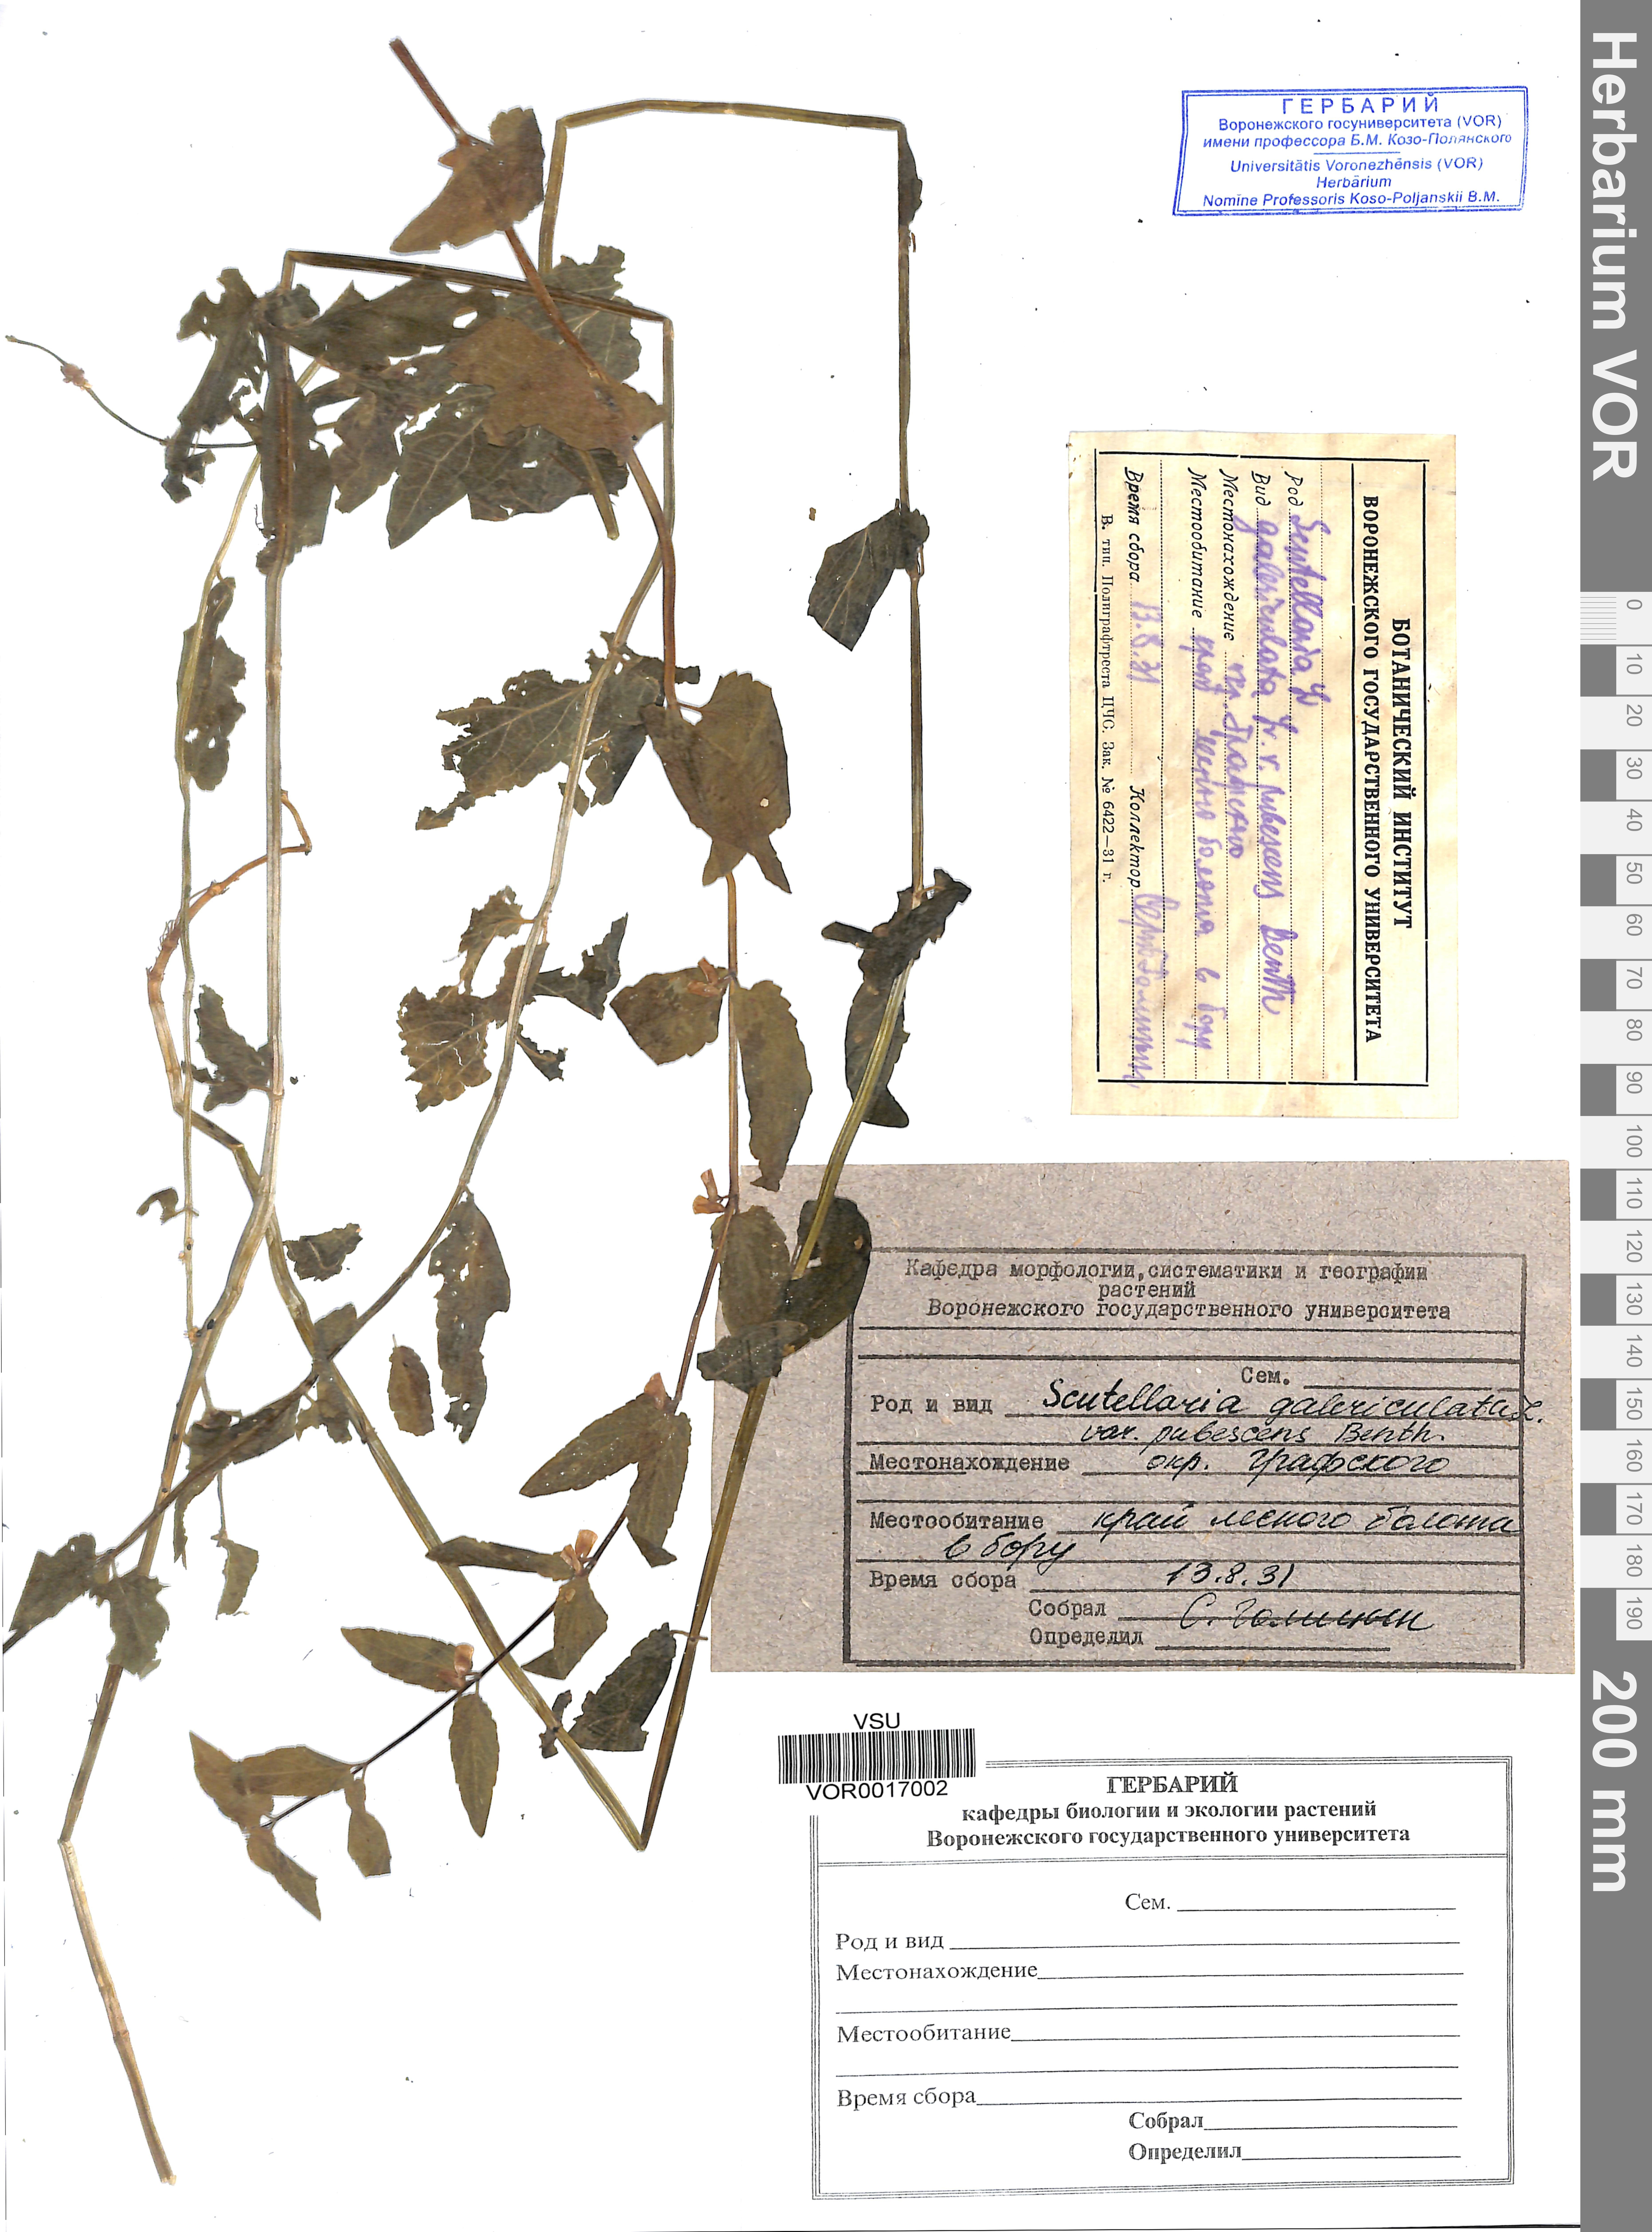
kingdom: Plantae
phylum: Tracheophyta
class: Magnoliopsida
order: Lamiales
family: Lamiaceae
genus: Scutellaria
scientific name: Scutellaria galericulata
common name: Skullcap
